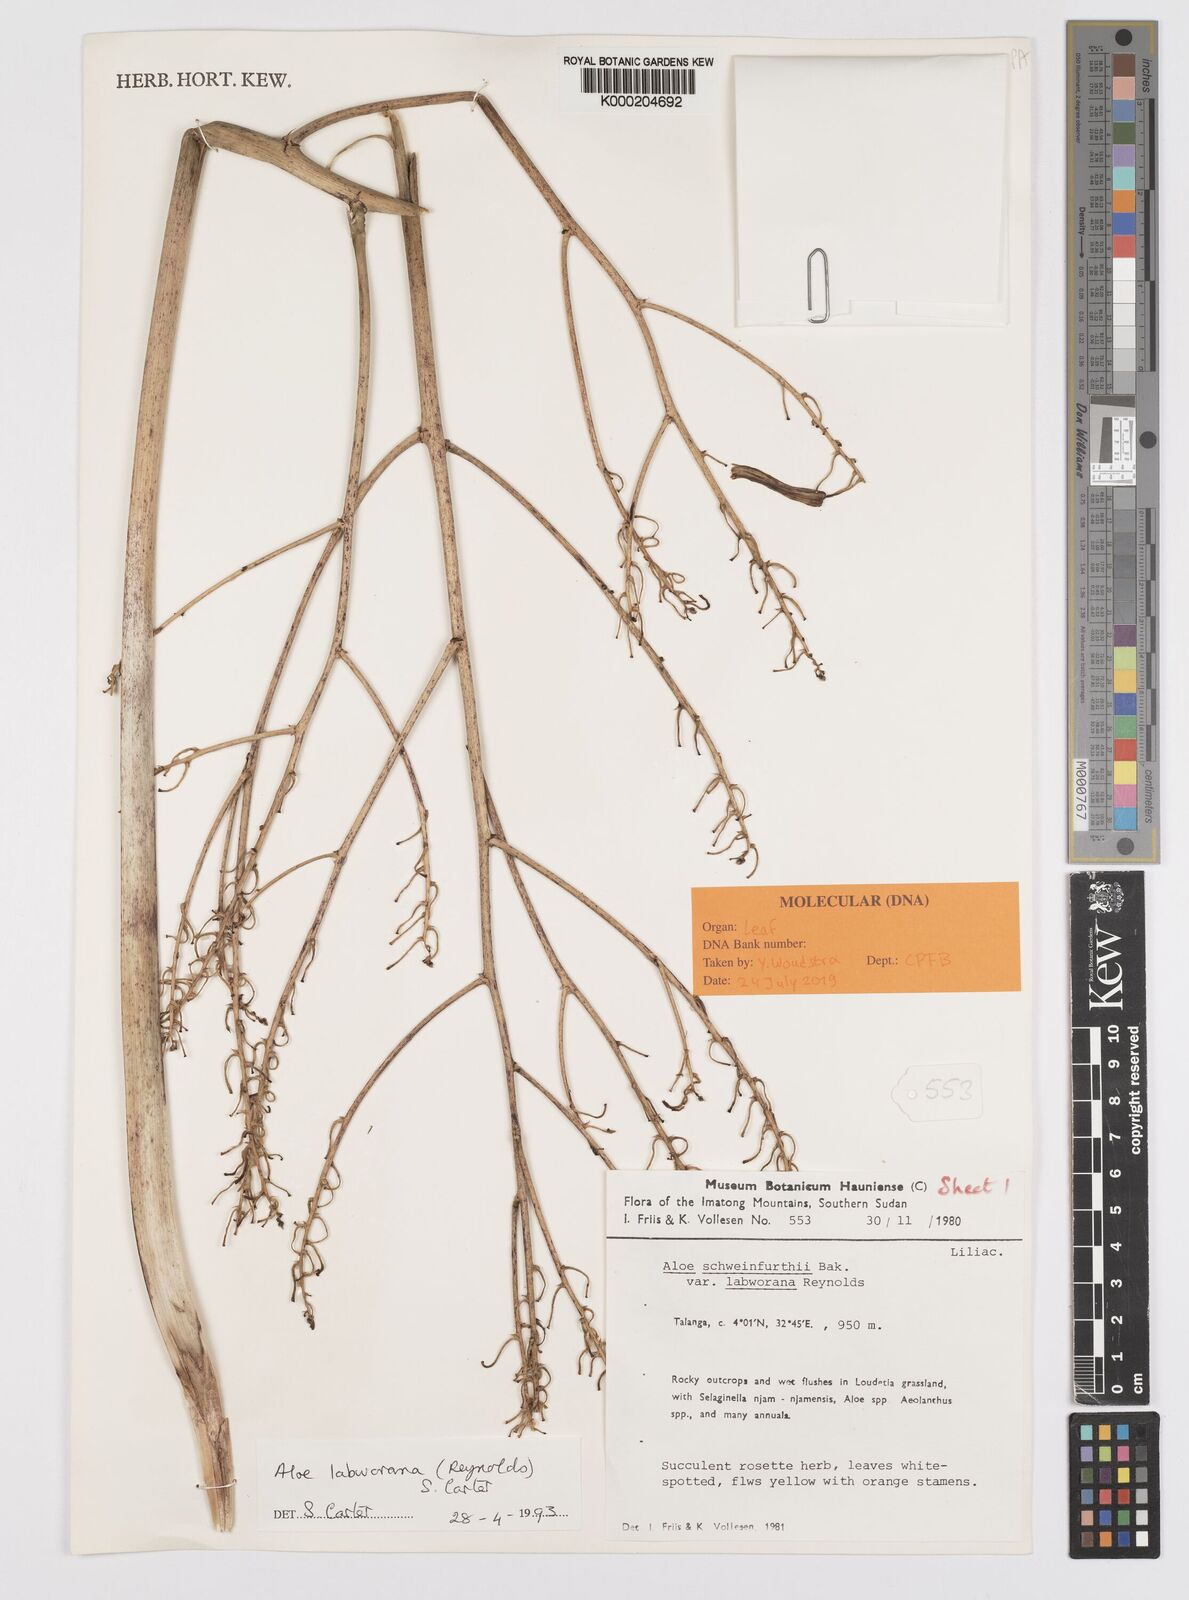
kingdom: Plantae
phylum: Tracheophyta
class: Liliopsida
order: Asparagales
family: Asphodelaceae
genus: Aloe
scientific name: Aloe labworana
